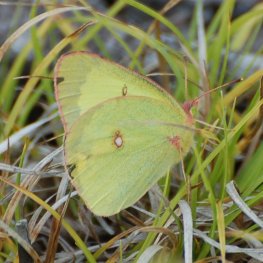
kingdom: Animalia
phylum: Arthropoda
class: Insecta
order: Lepidoptera
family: Pieridae
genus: Colias
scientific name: Colias philodice
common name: Clouded Sulphur
